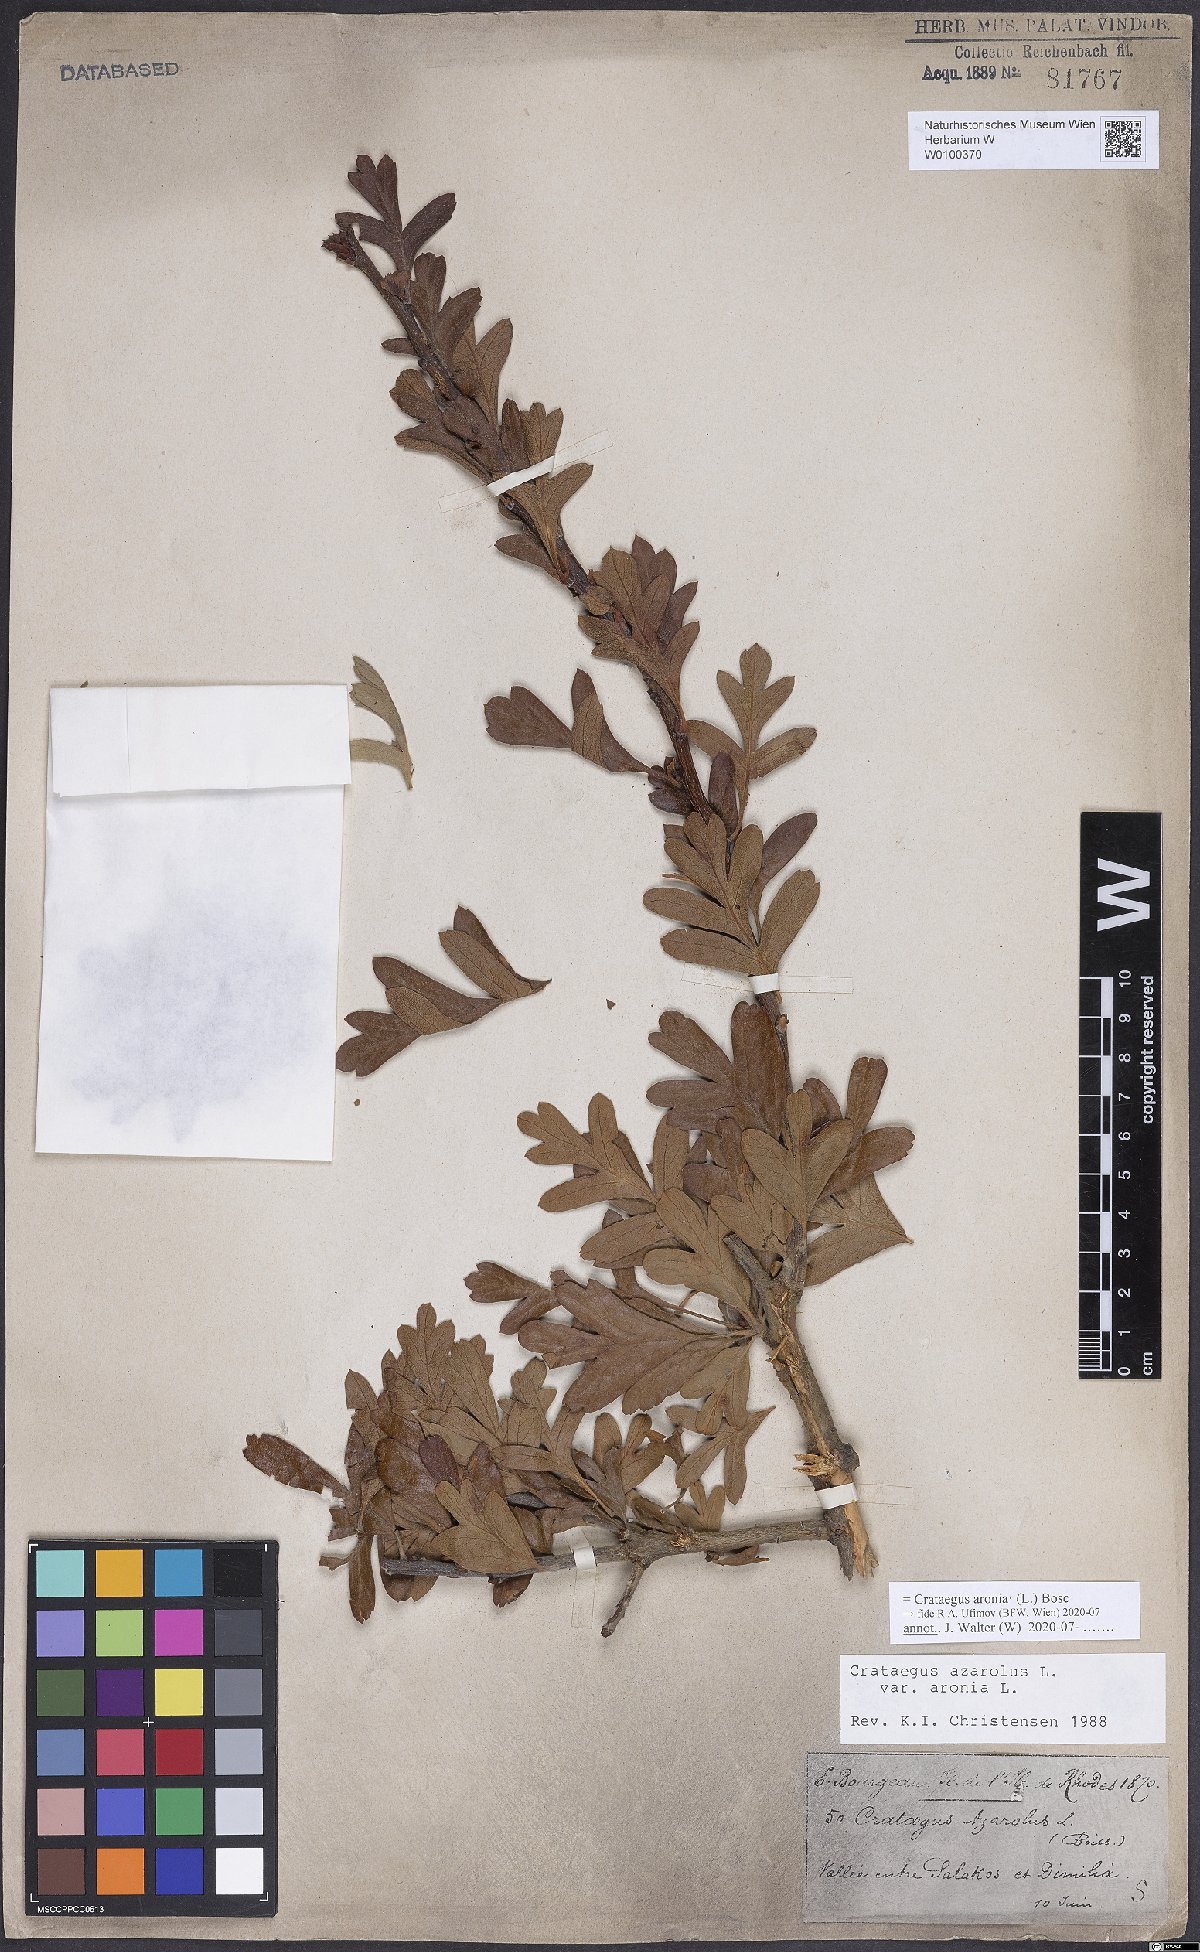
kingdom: Plantae
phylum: Tracheophyta
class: Magnoliopsida
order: Rosales
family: Rosaceae
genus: Crataegus
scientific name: Crataegus azarolus
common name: Azarole
